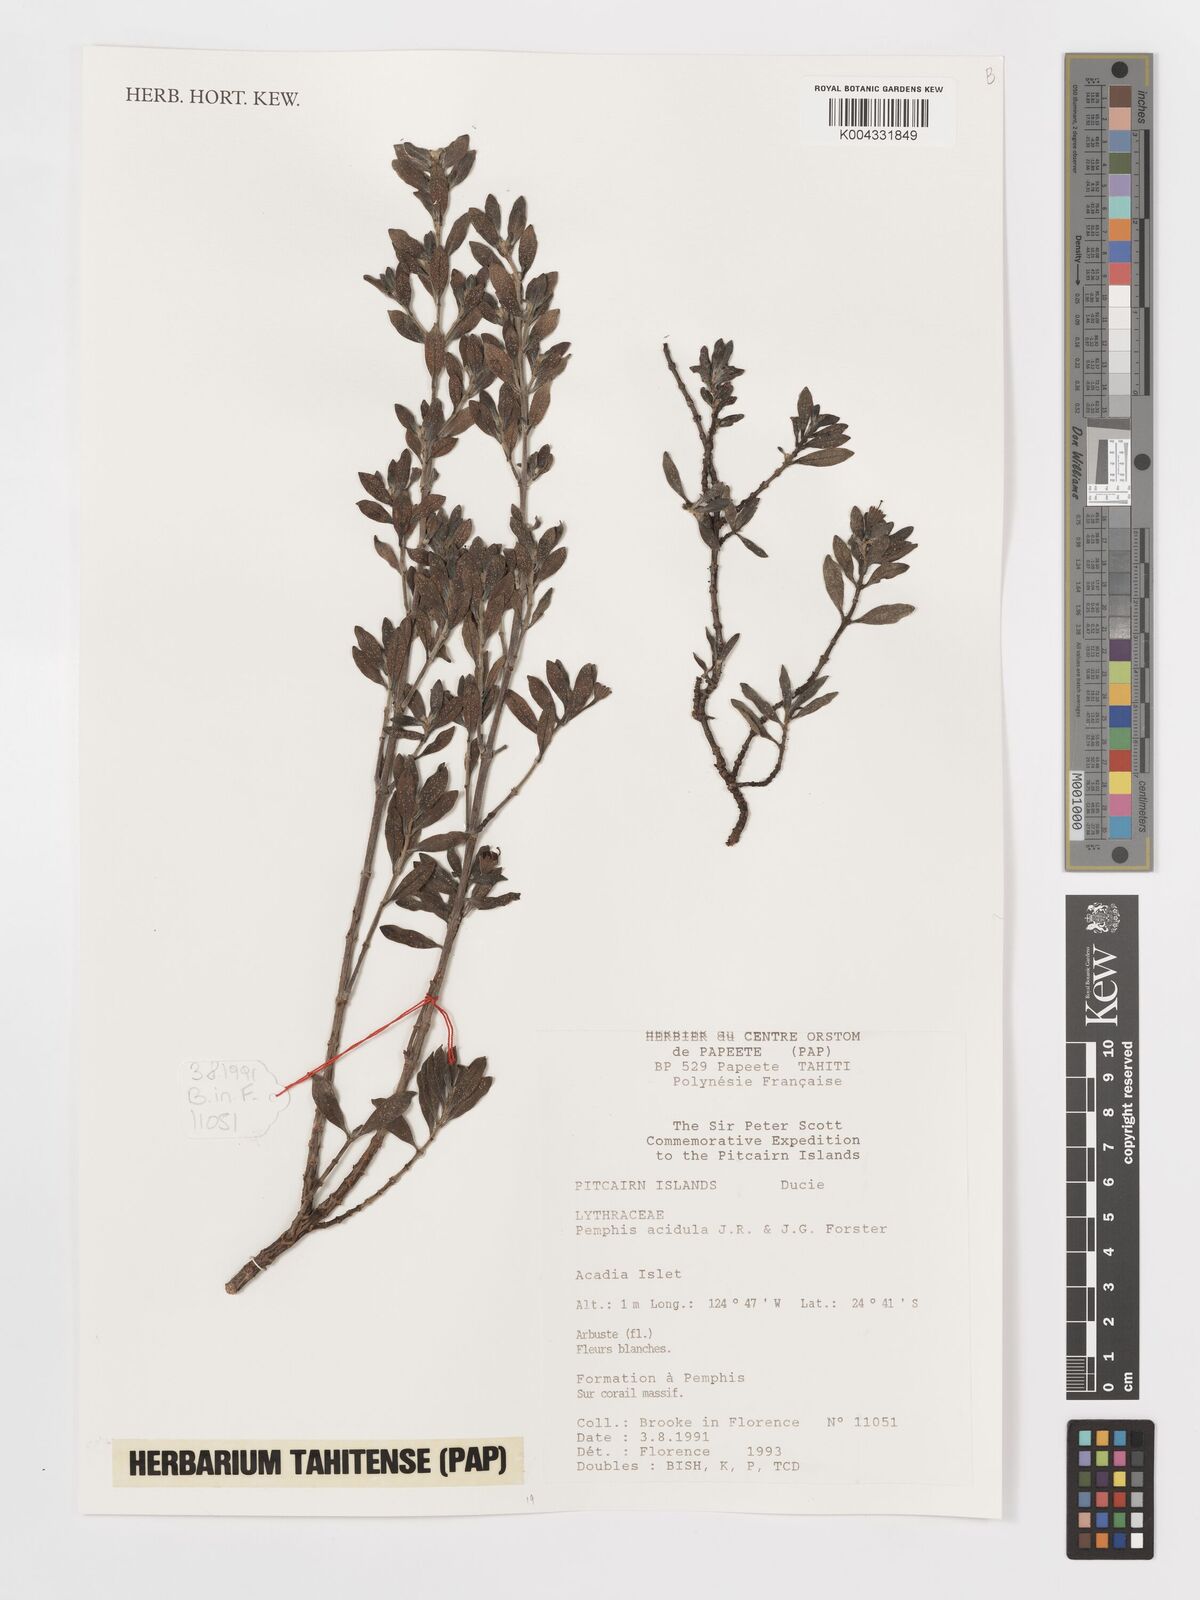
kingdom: Plantae
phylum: Tracheophyta
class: Magnoliopsida
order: Myrtales
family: Lythraceae
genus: Pemphis
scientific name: Pemphis acidula
